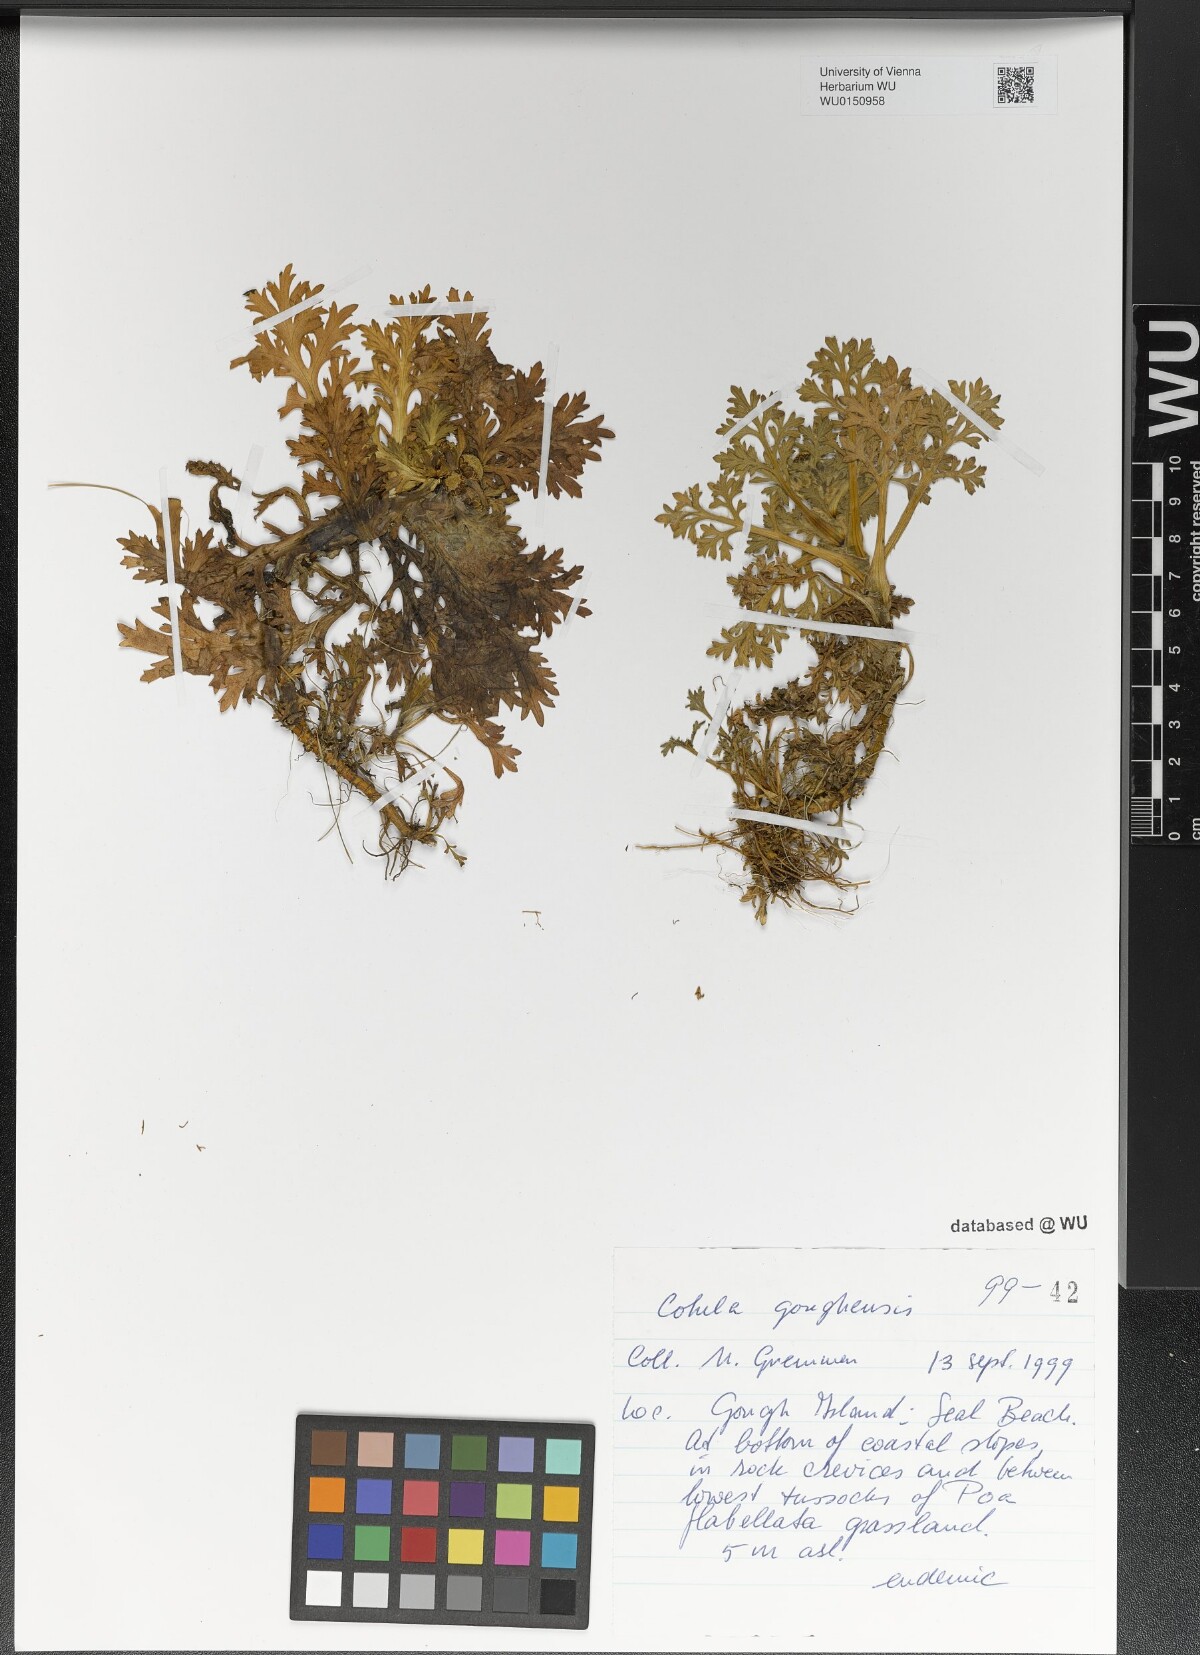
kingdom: Plantae
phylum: Tracheophyta
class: Magnoliopsida
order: Asterales
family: Asteraceae
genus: Cotula
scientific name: Cotula goughensis
